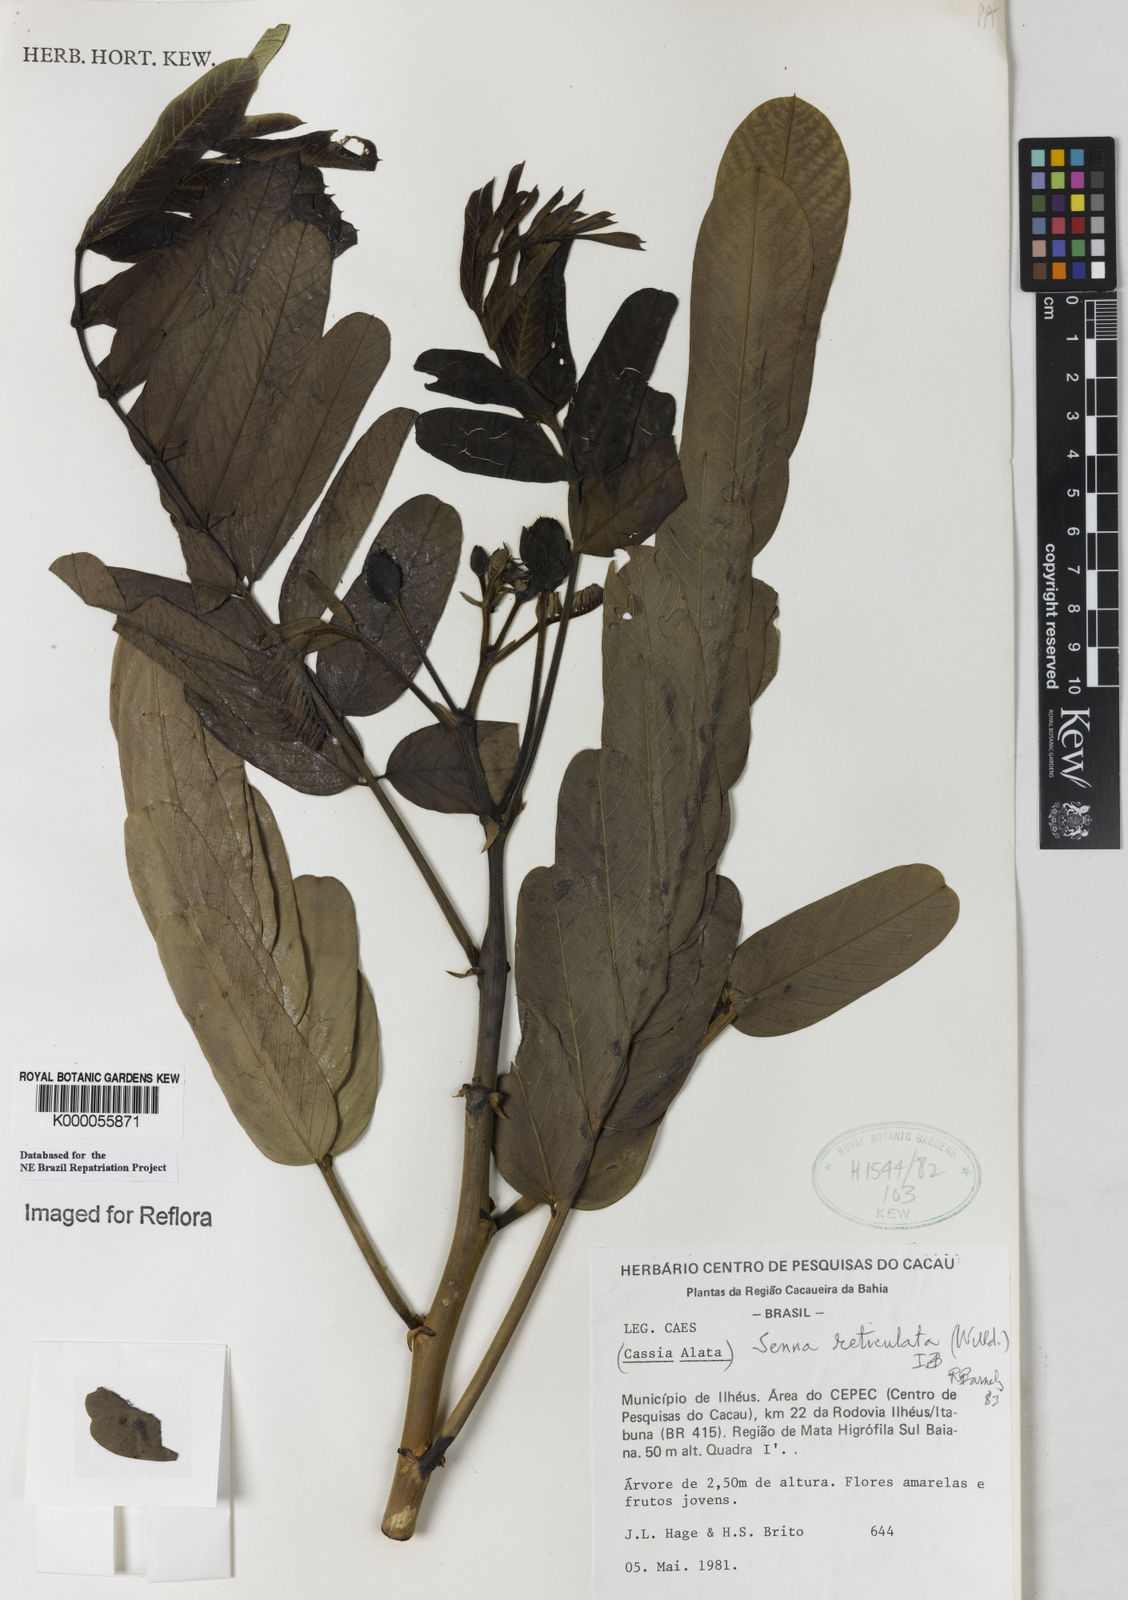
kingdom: Plantae
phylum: Tracheophyta
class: Magnoliopsida
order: Fabales
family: Fabaceae
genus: Senna
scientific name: Senna reticulata
